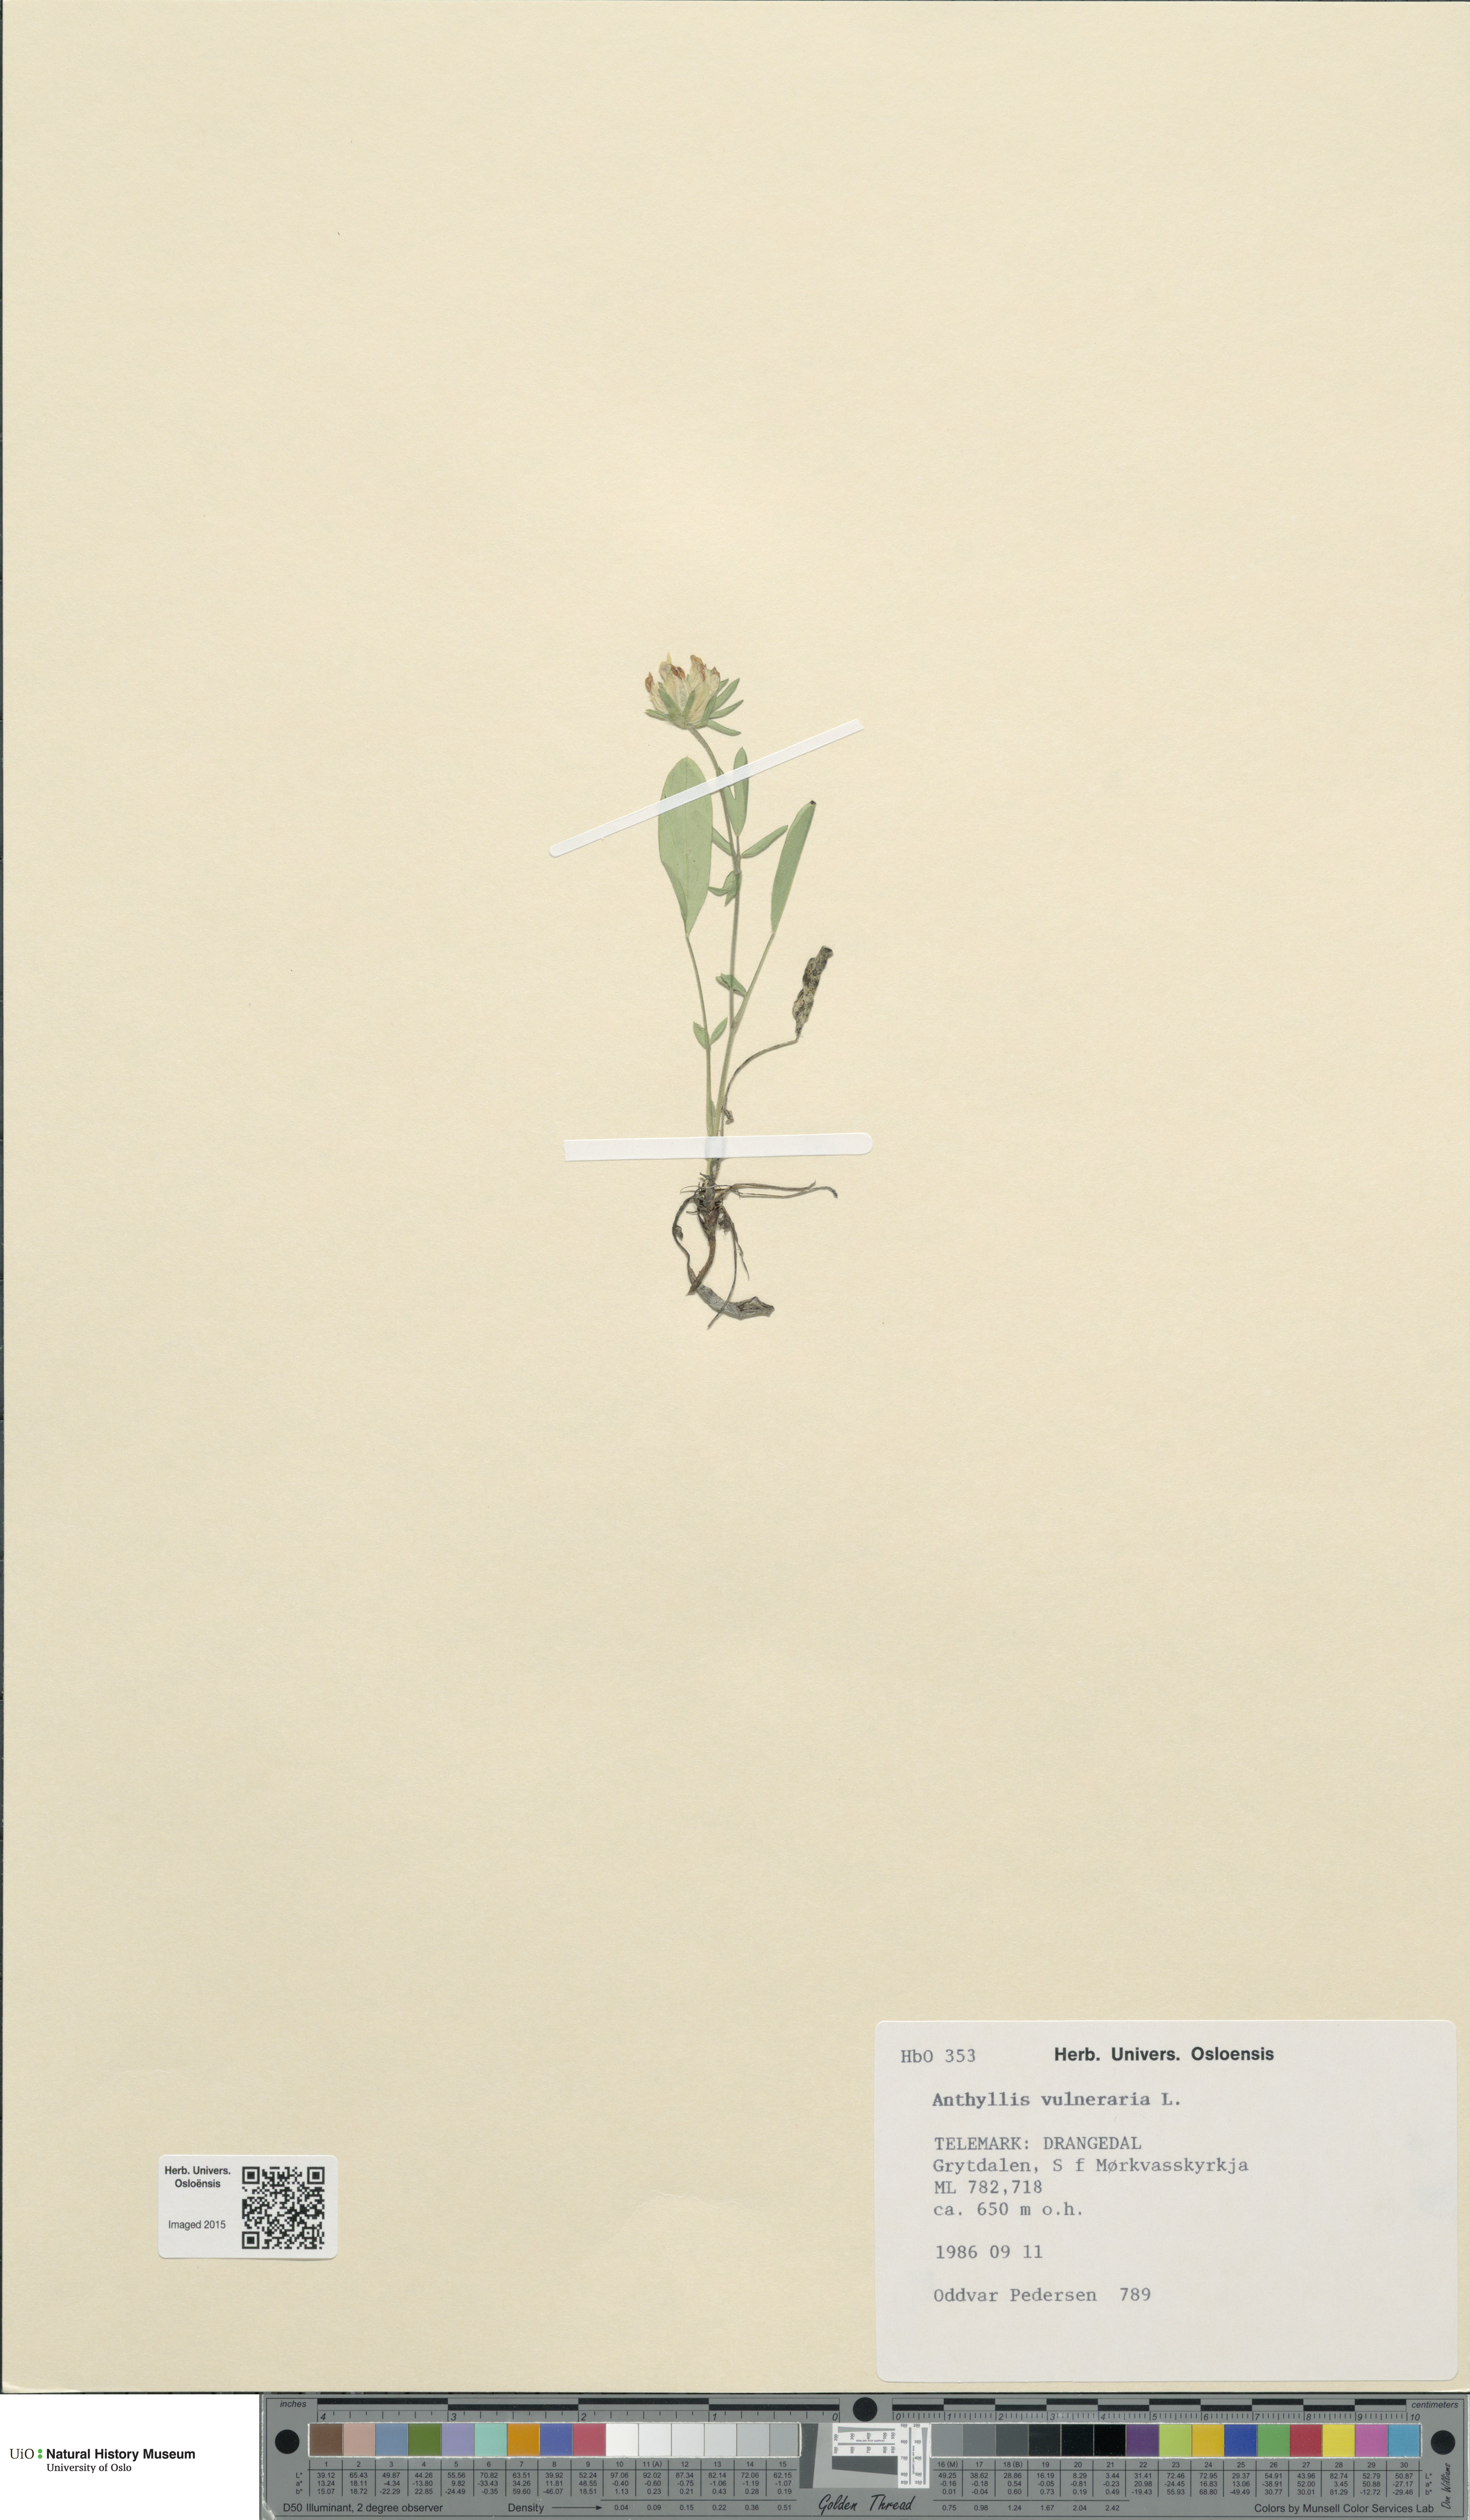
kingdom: Plantae
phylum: Tracheophyta
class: Magnoliopsida
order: Fabales
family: Fabaceae
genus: Anthyllis
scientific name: Anthyllis vulneraria
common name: Kidney vetch
